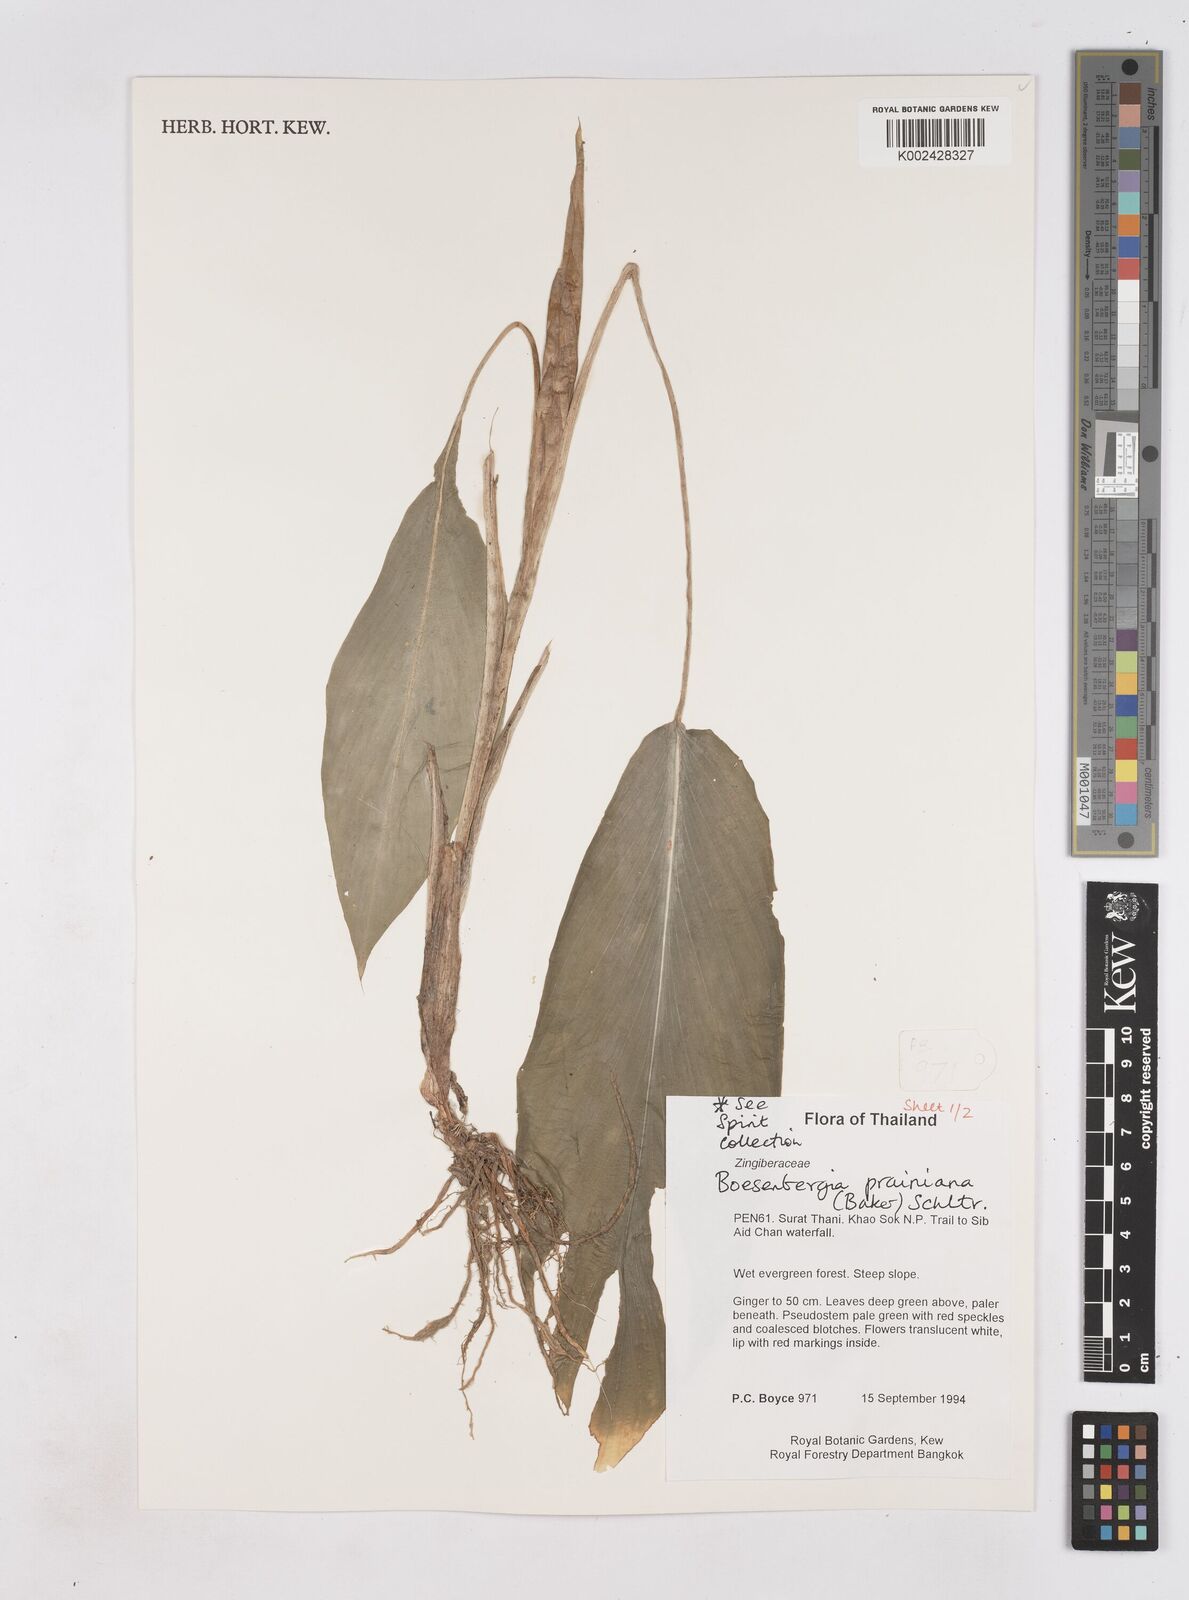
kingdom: Plantae
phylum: Tracheophyta
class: Liliopsida
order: Zingiberales
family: Zingiberaceae
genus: Boesenbergia
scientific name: Boesenbergia prainiana
